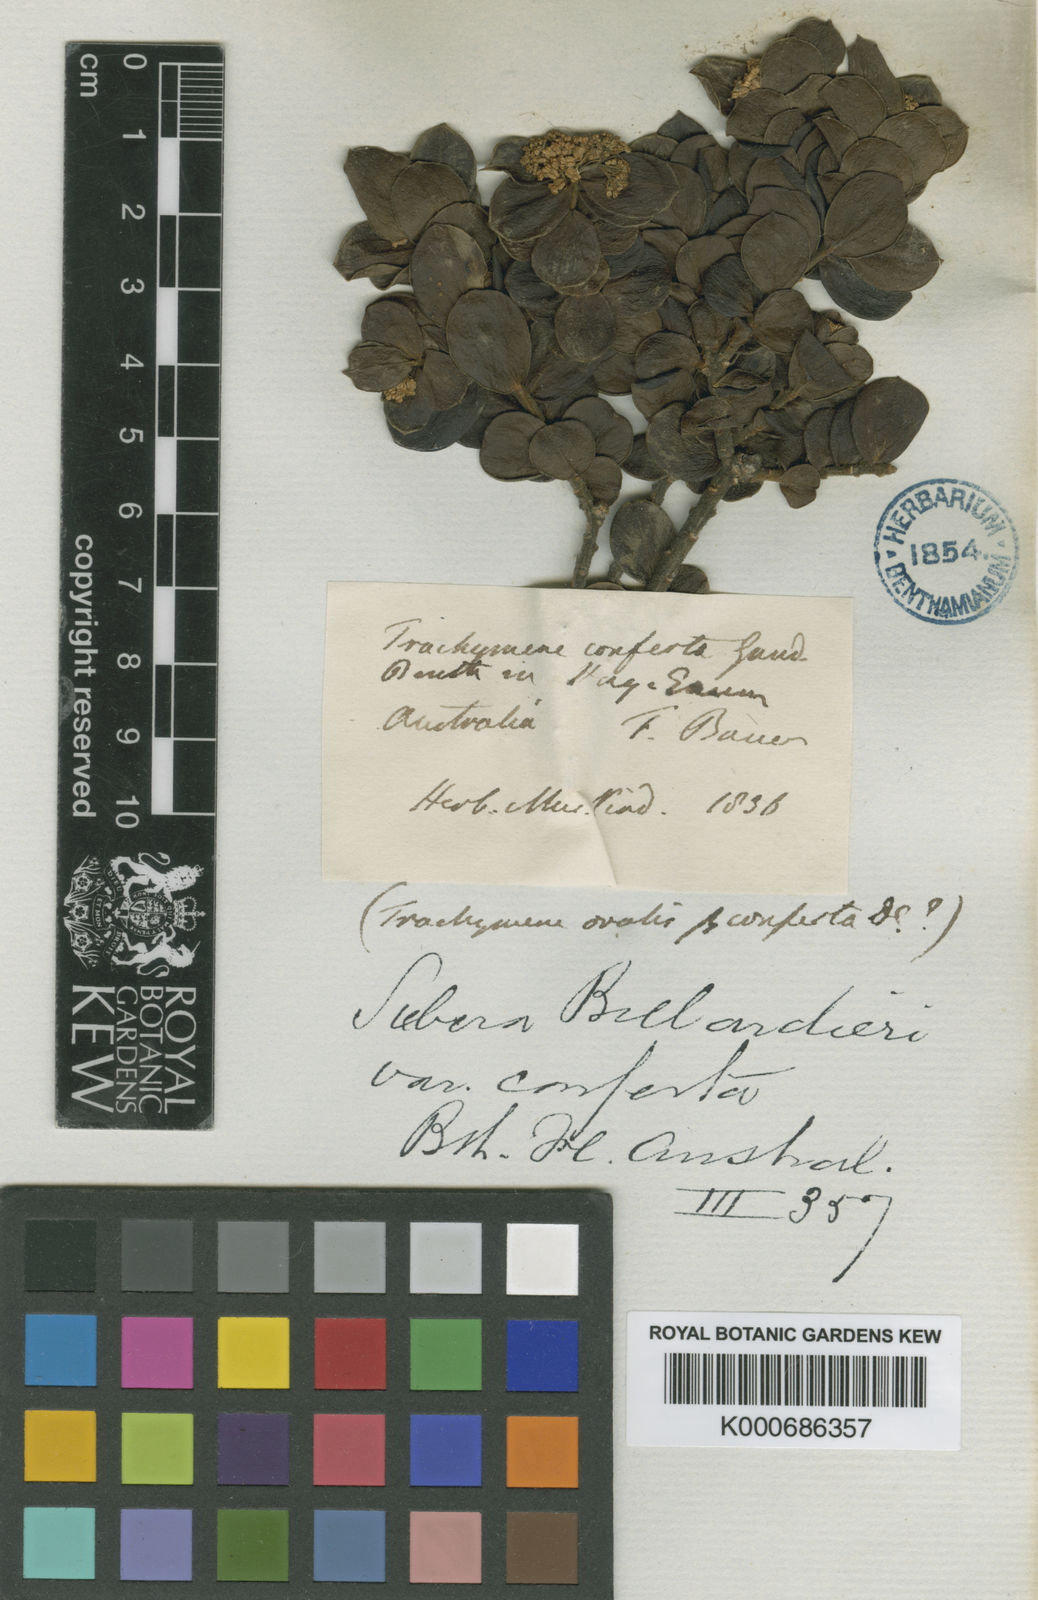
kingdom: Plantae
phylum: Tracheophyta
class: Magnoliopsida
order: Apiales
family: Apiaceae
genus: Platysace
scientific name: Platysace lanceolata
